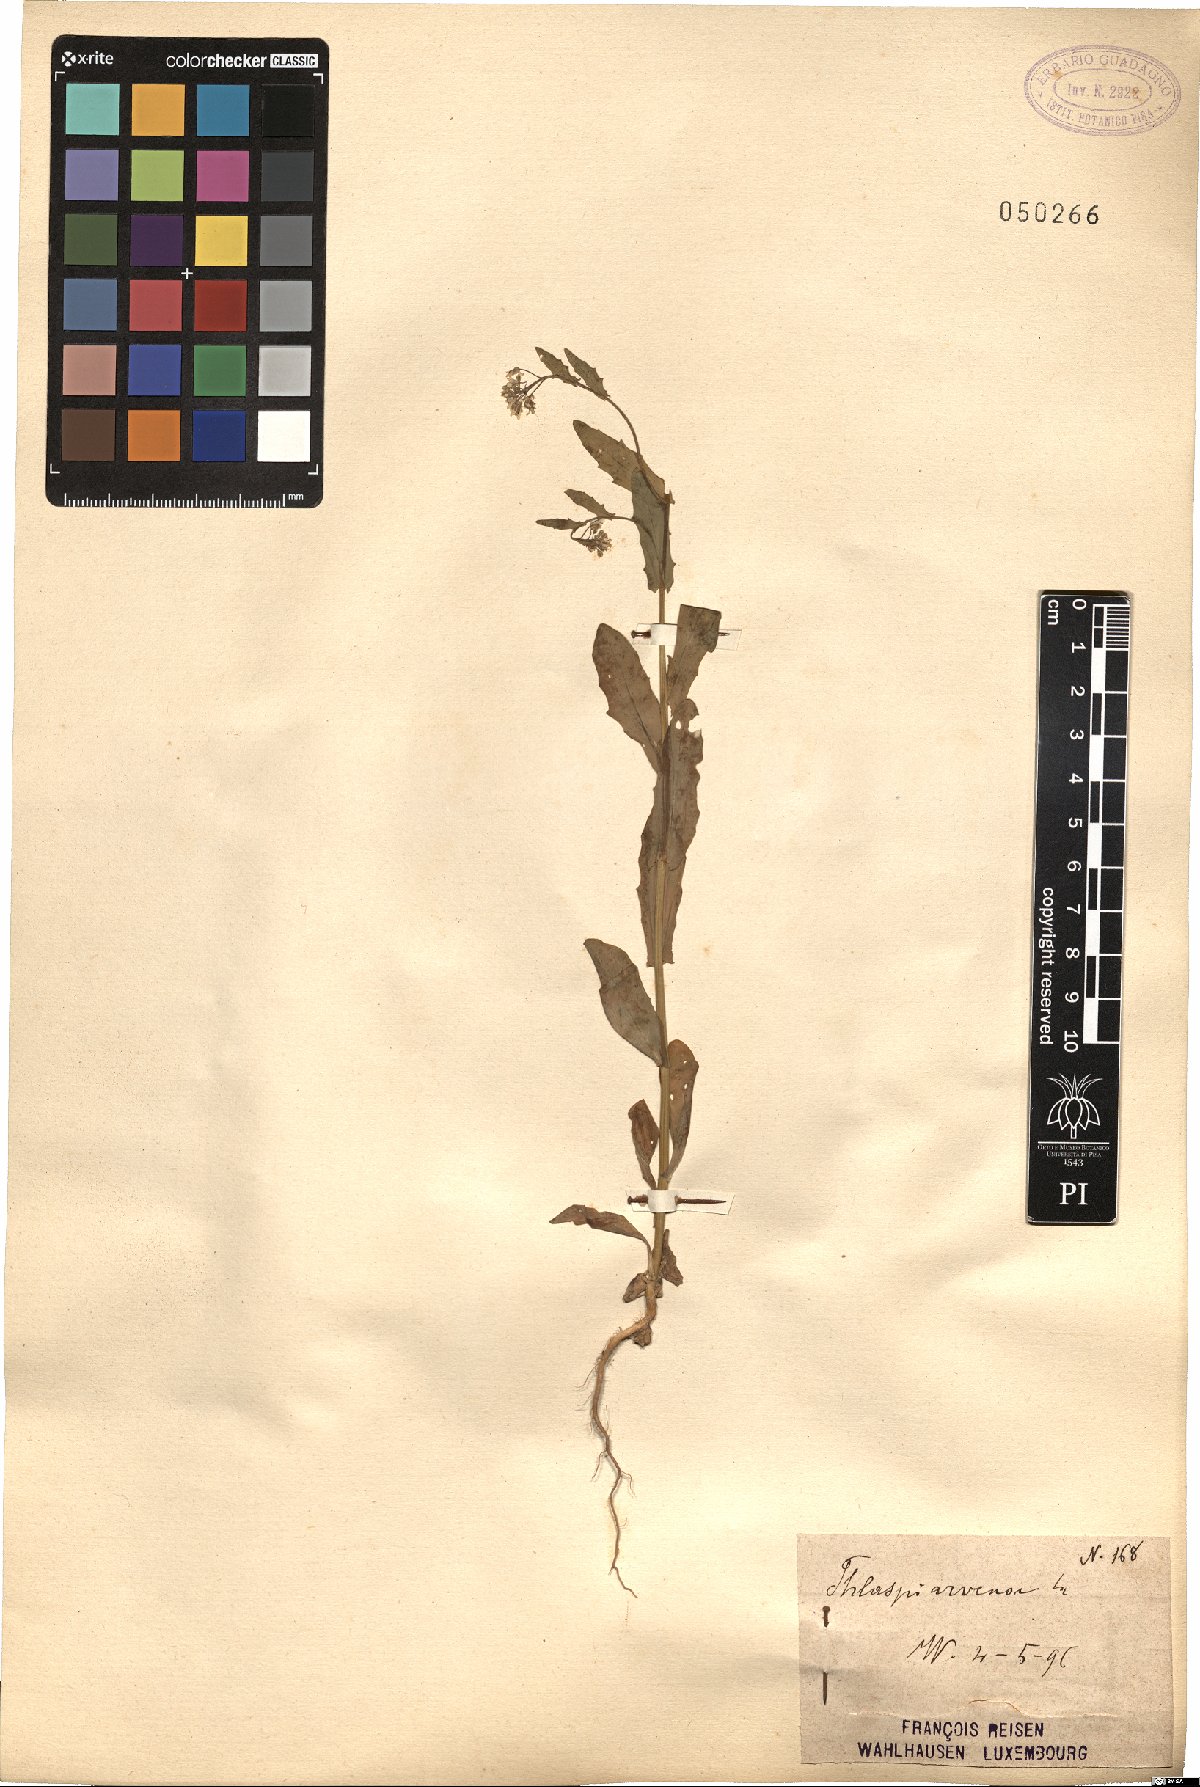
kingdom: Plantae
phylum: Tracheophyta
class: Magnoliopsida
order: Brassicales
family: Brassicaceae
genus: Thlaspi
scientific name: Thlaspi arvense
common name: Field pennycress
